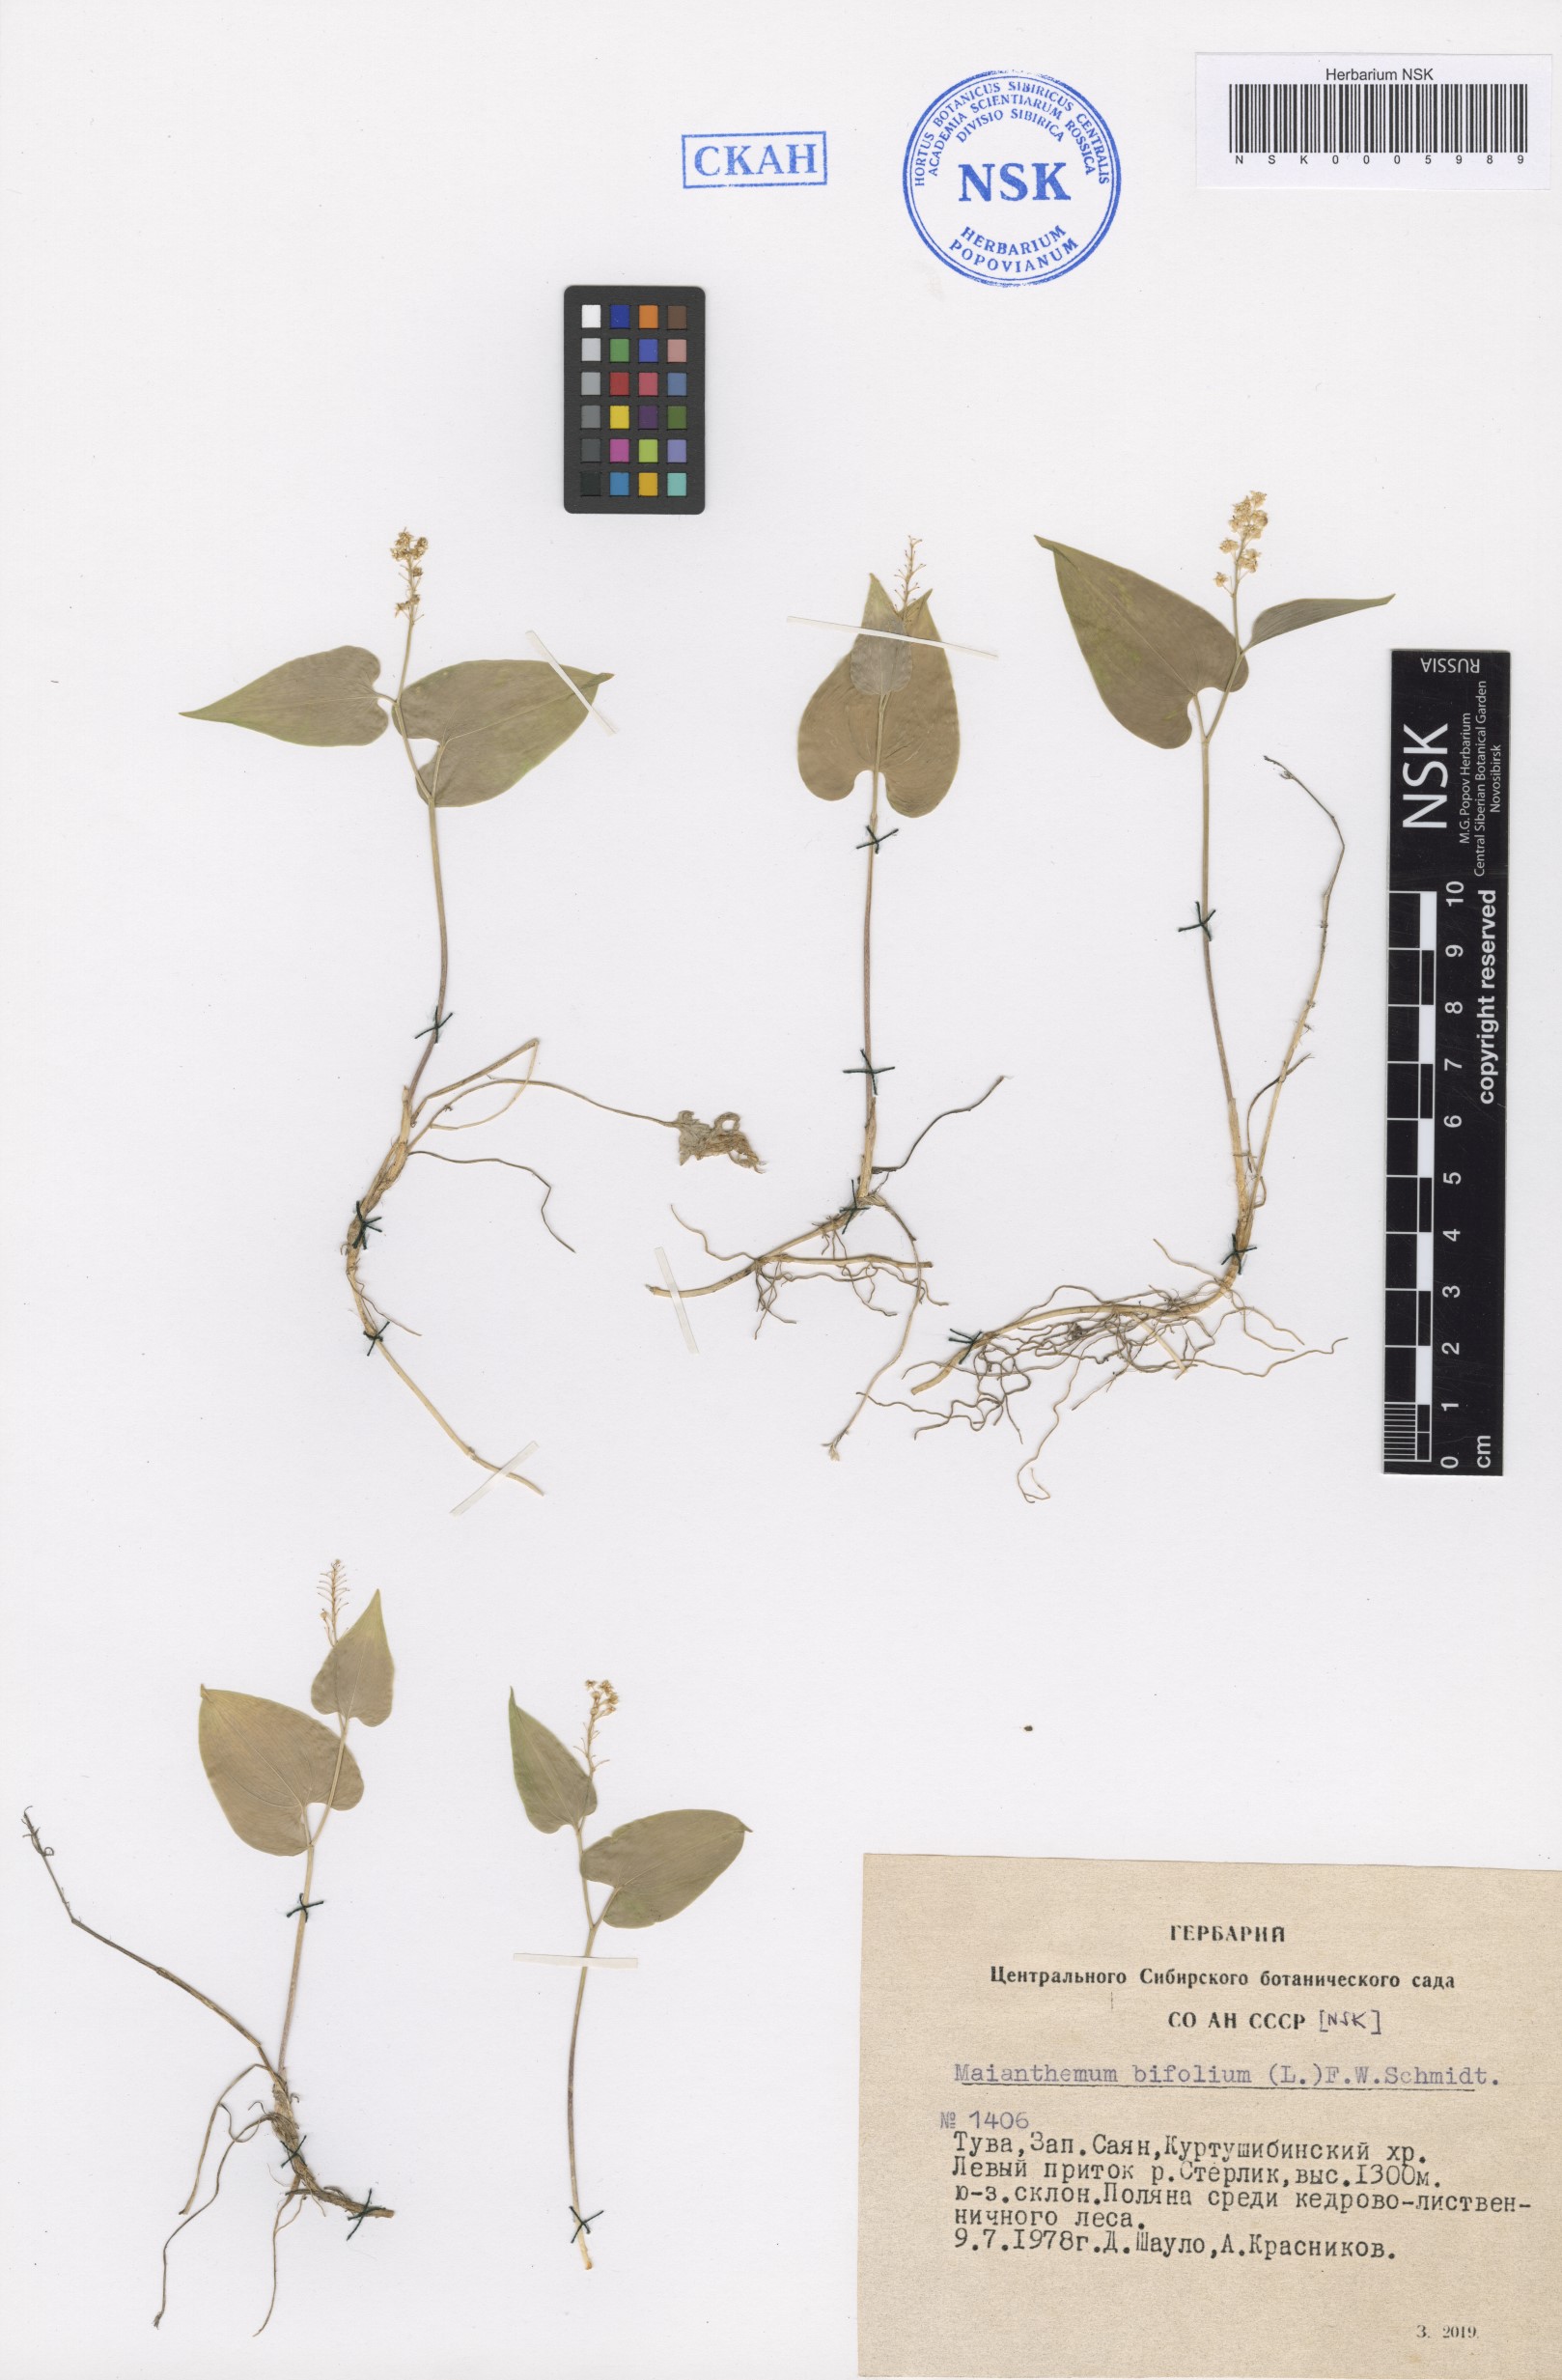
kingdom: Plantae
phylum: Tracheophyta
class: Liliopsida
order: Asparagales
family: Asparagaceae
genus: Maianthemum
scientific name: Maianthemum bifolium
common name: May lily
